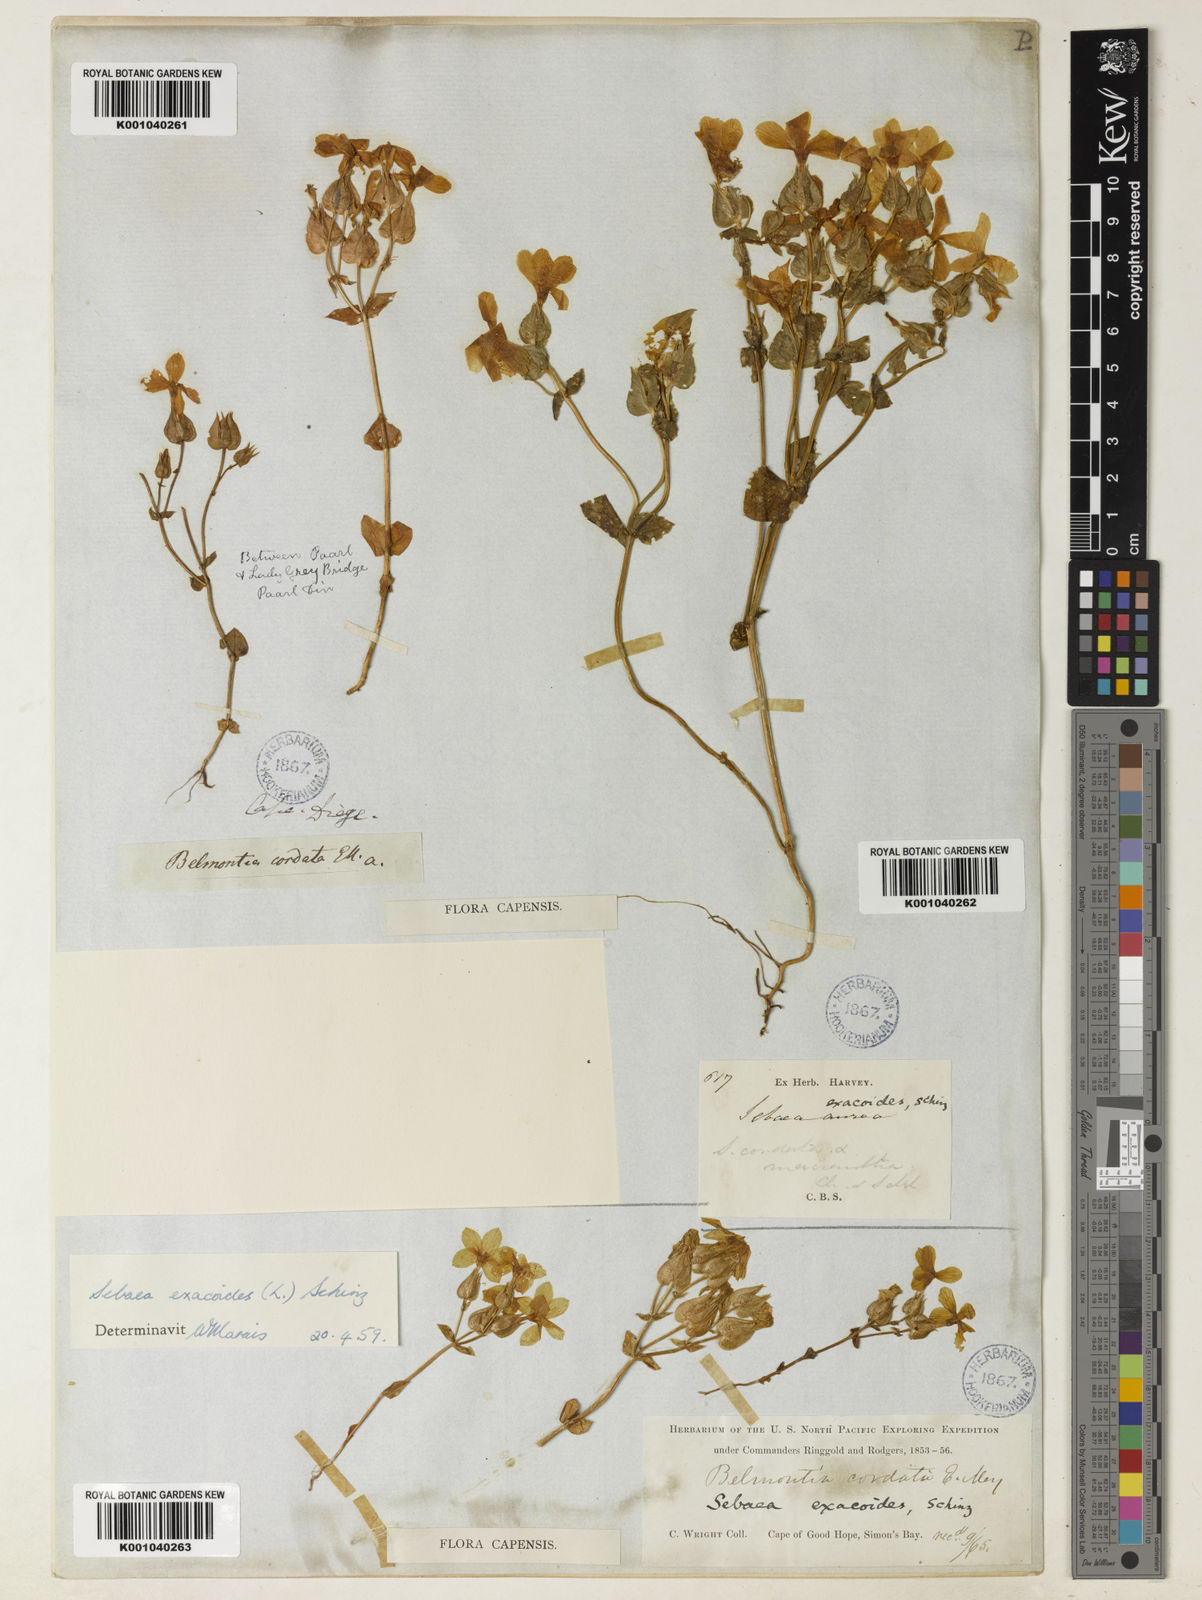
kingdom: Plantae
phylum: Tracheophyta
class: Magnoliopsida
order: Gentianales
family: Gentianaceae
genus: Sebaea
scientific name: Sebaea exacoides
